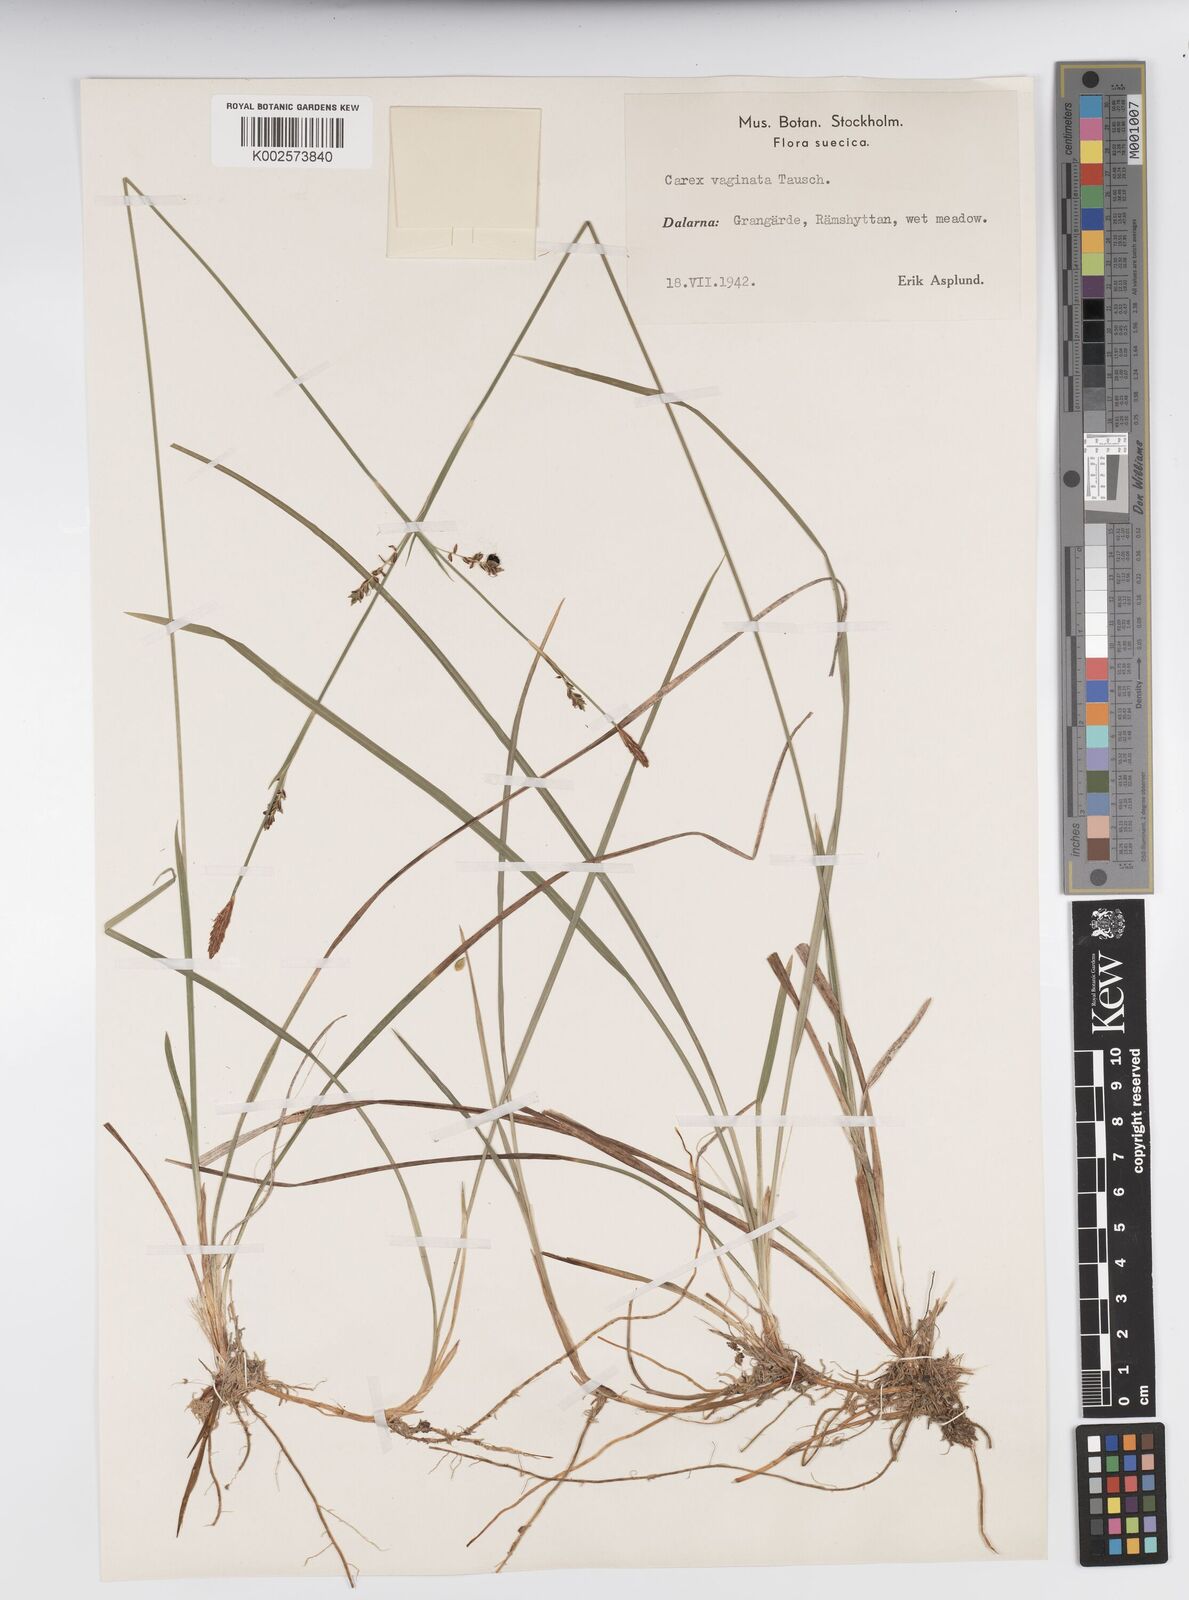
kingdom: Plantae
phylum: Tracheophyta
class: Liliopsida
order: Poales
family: Cyperaceae
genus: Carex
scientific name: Carex vaginata
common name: Sheathed sedge
